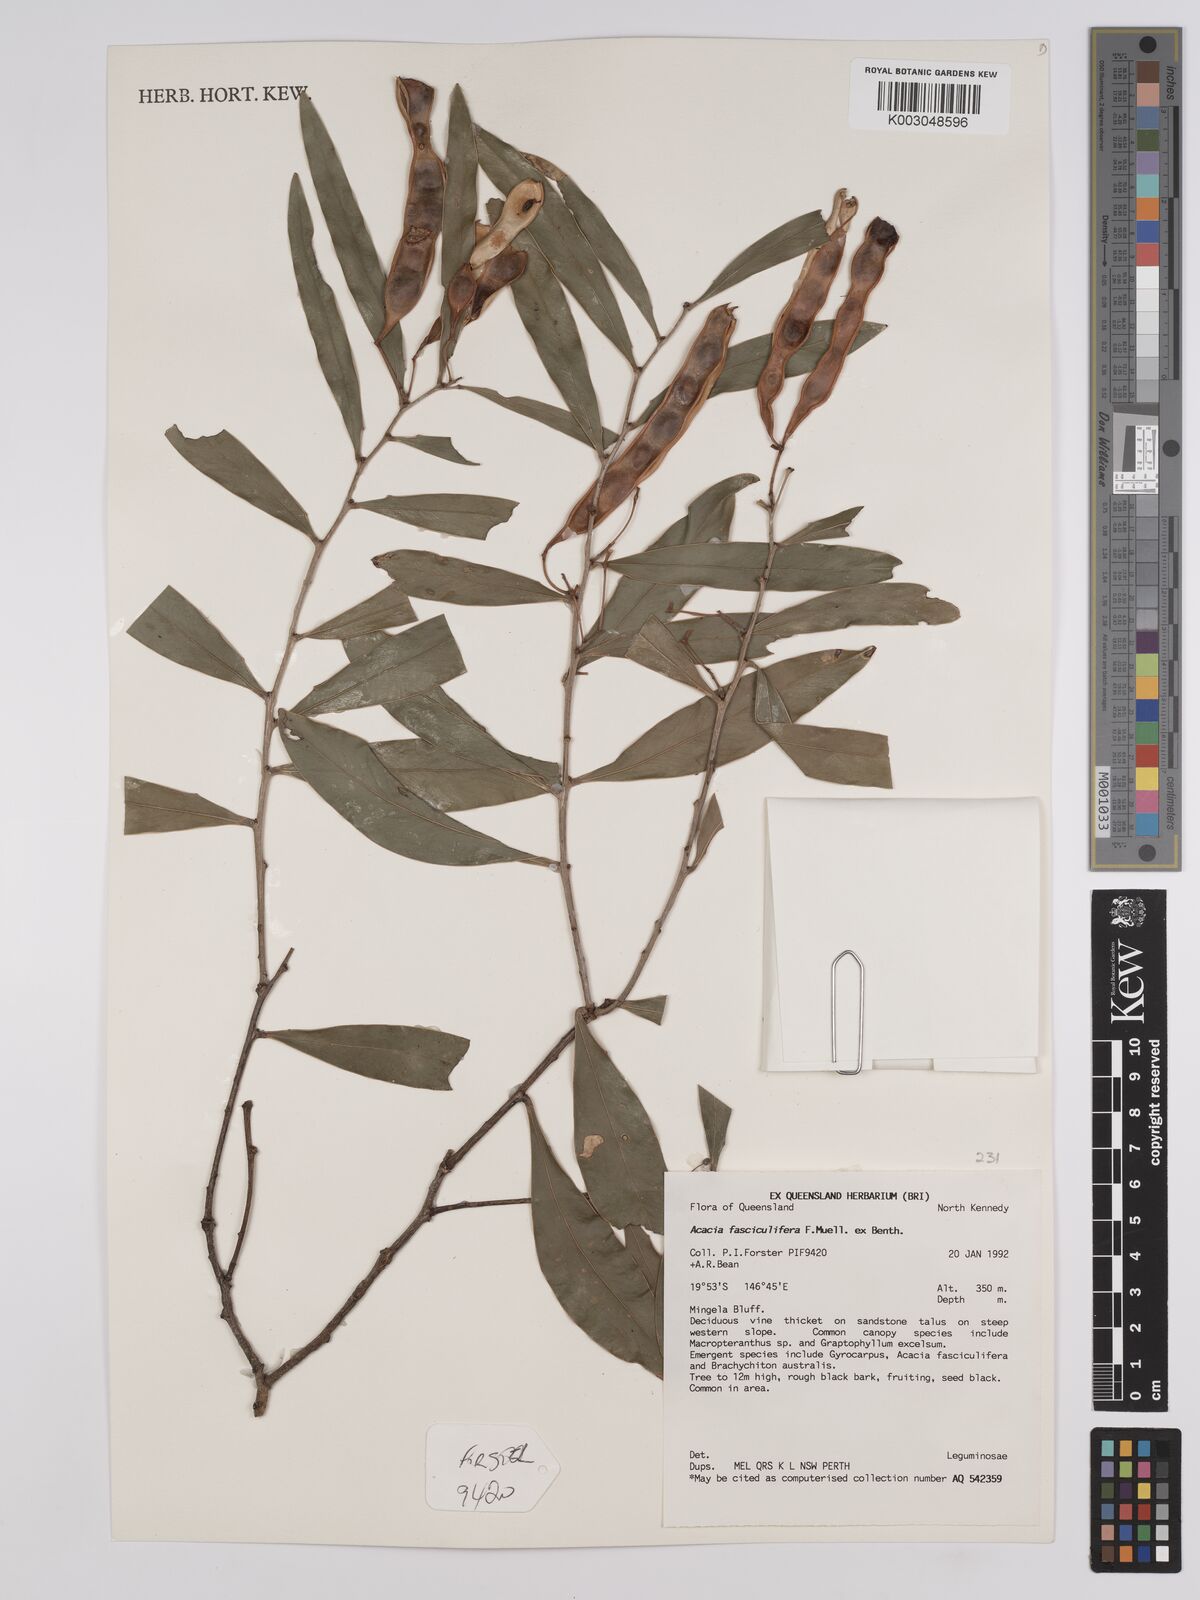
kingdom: Plantae
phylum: Tracheophyta
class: Magnoliopsida
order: Fabales
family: Fabaceae
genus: Acacia
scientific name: Acacia fasciculifera
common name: Scalybark
